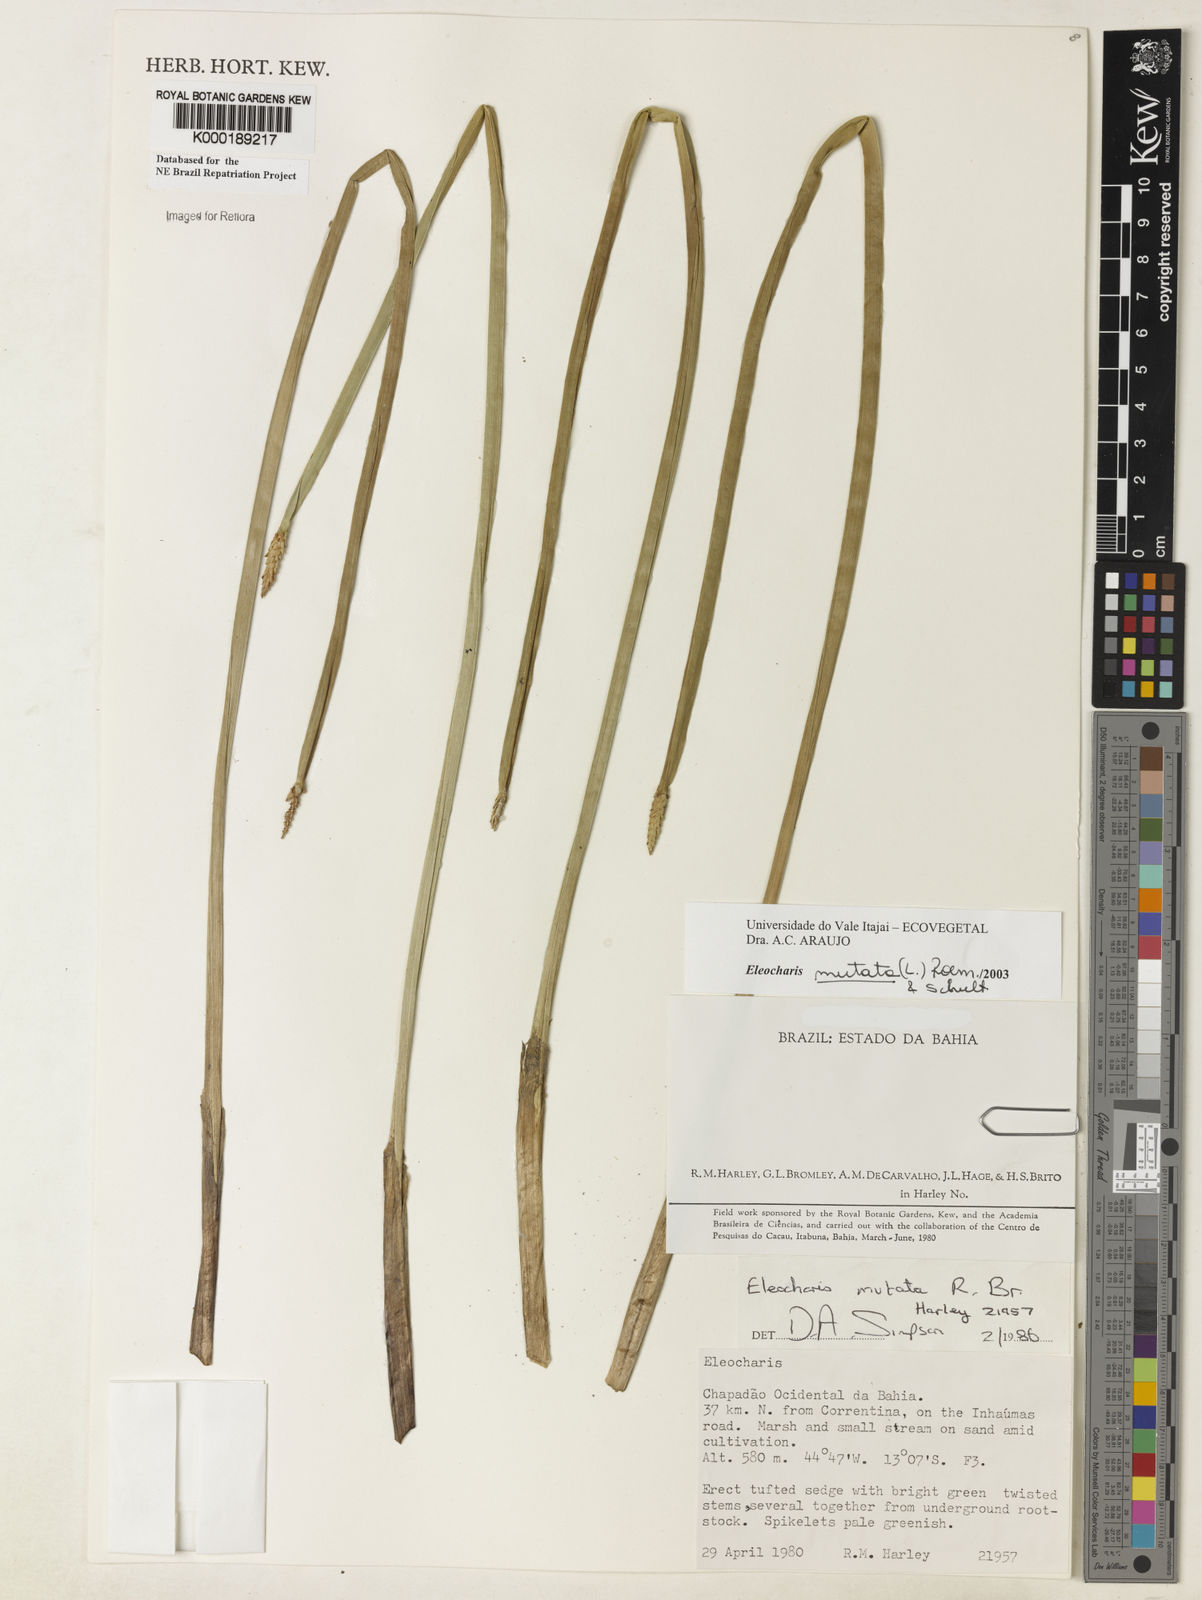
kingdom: Plantae
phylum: Tracheophyta
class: Liliopsida
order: Poales
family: Cyperaceae
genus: Eleocharis
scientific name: Eleocharis mutata
